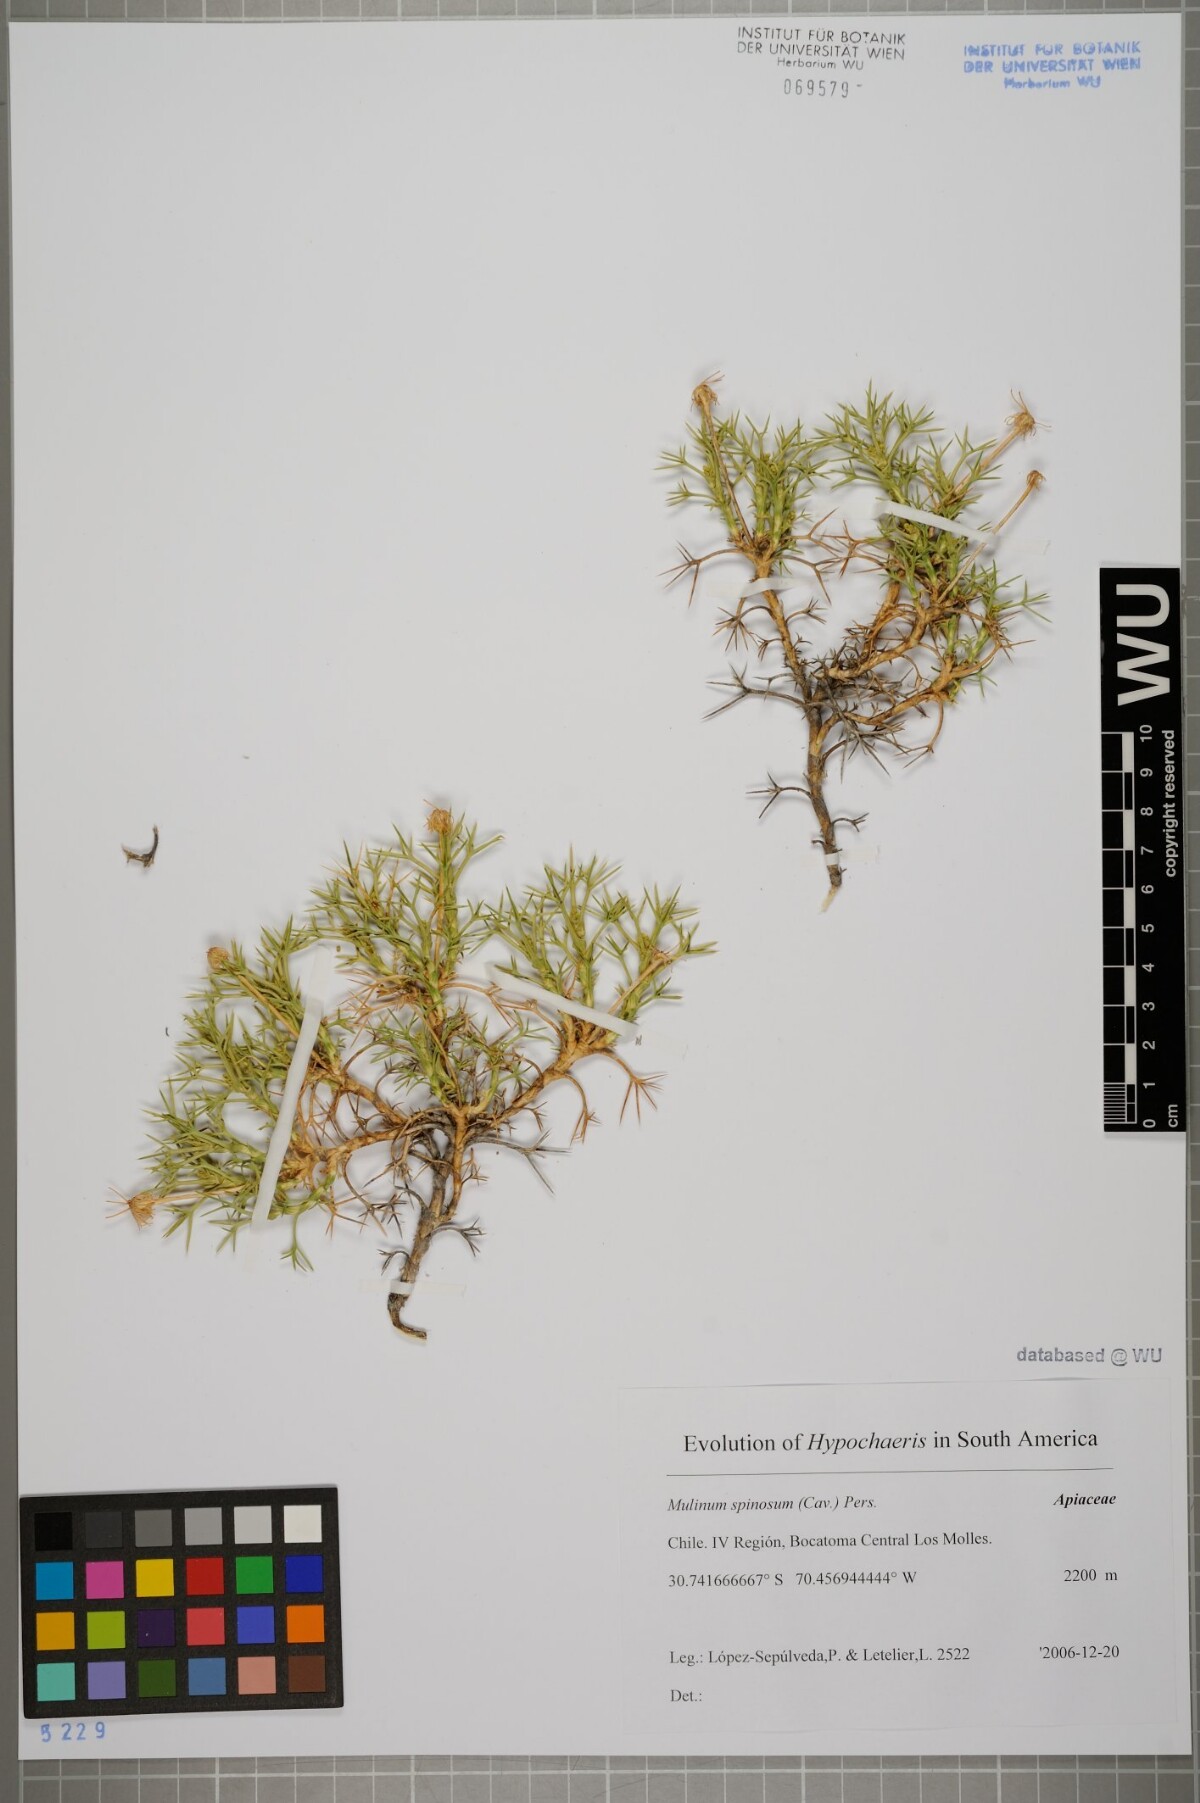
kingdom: Plantae
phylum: Tracheophyta
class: Magnoliopsida
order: Apiales
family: Apiaceae
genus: Azorella
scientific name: Azorella prolifera
